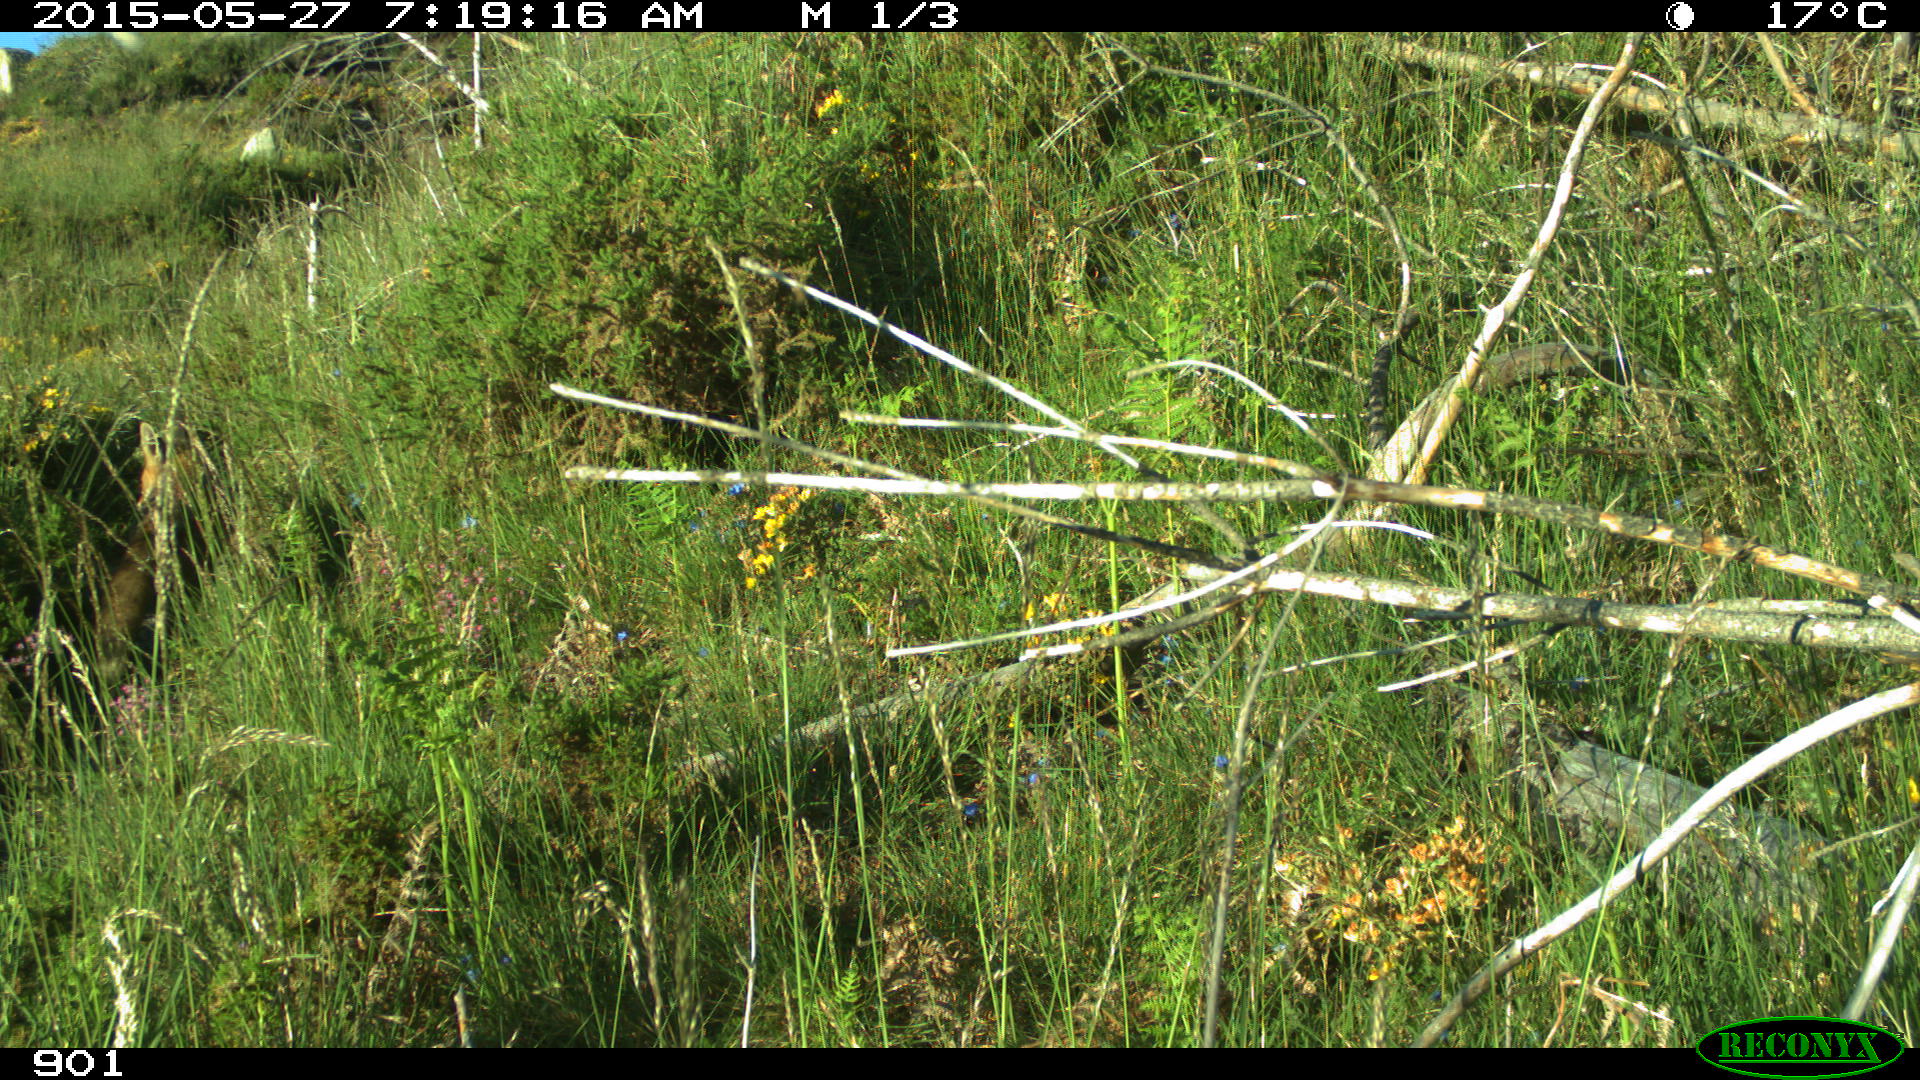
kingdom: Animalia
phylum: Chordata
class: Mammalia
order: Carnivora
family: Canidae
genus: Vulpes
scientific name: Vulpes vulpes
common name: Red fox
